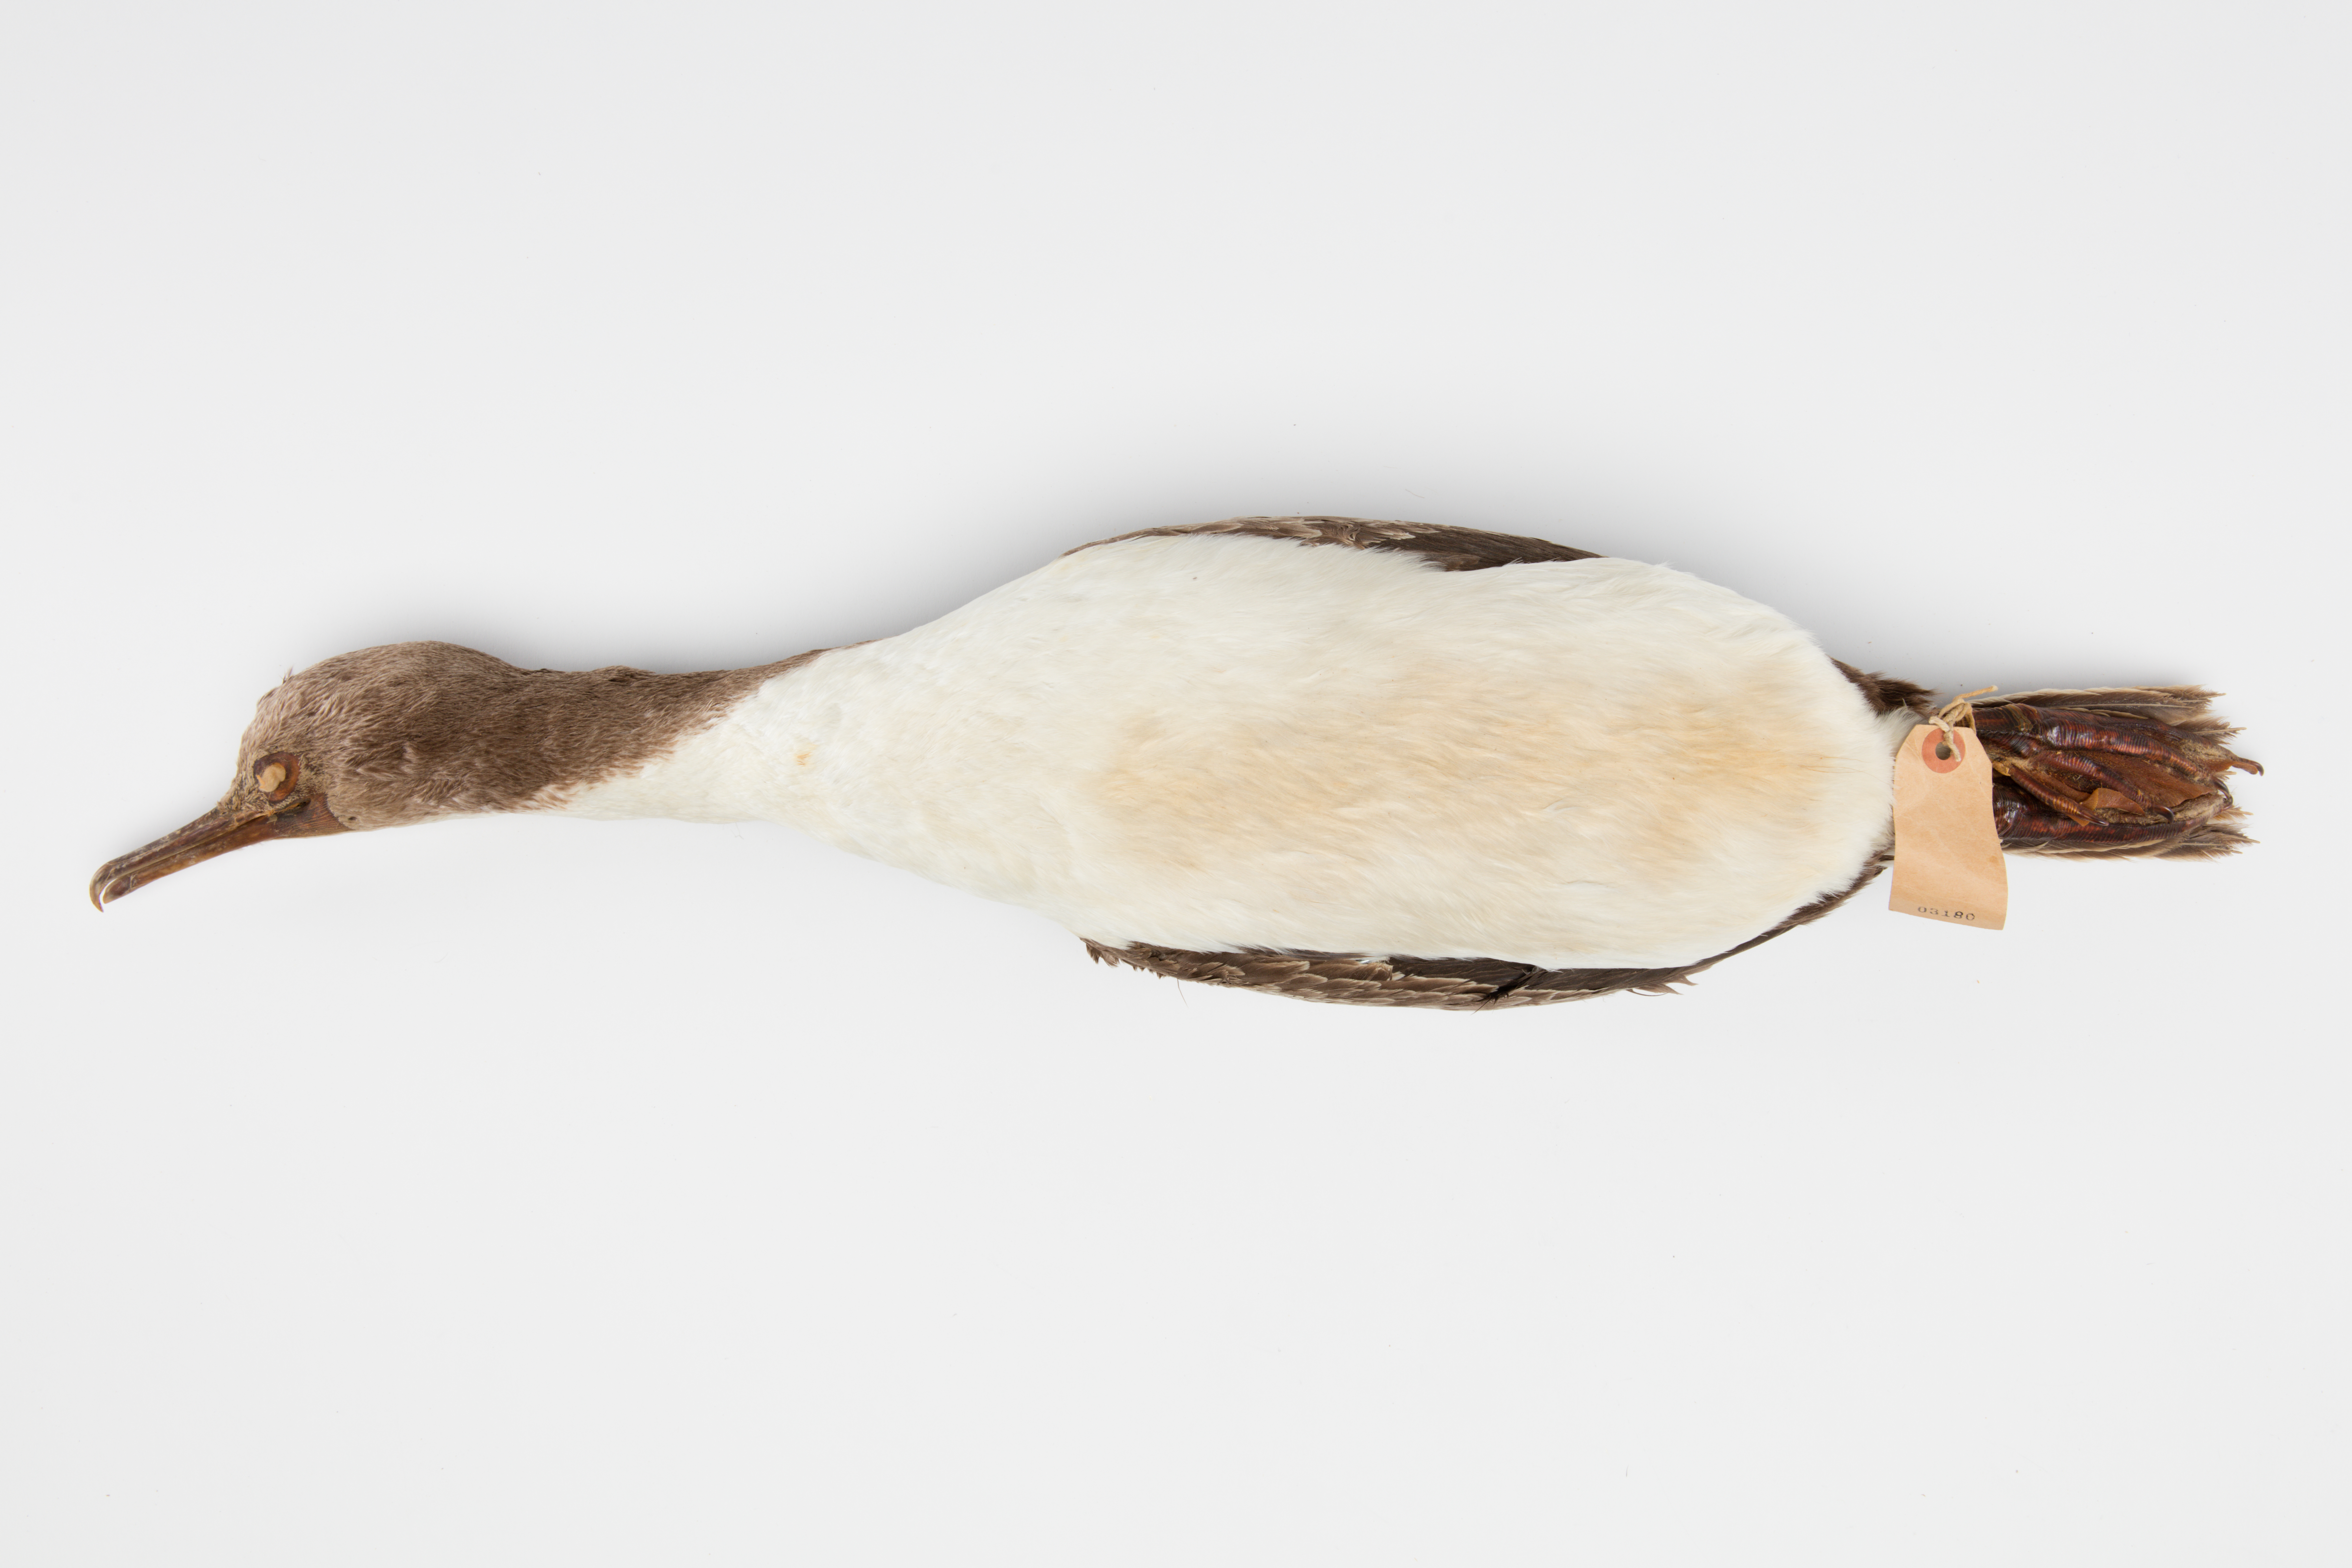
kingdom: Animalia
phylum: Chordata
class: Aves
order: Suliformes
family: Phalacrocoracidae
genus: Leucocarbo
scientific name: Leucocarbo carunculatus
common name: Rough-faced shag
